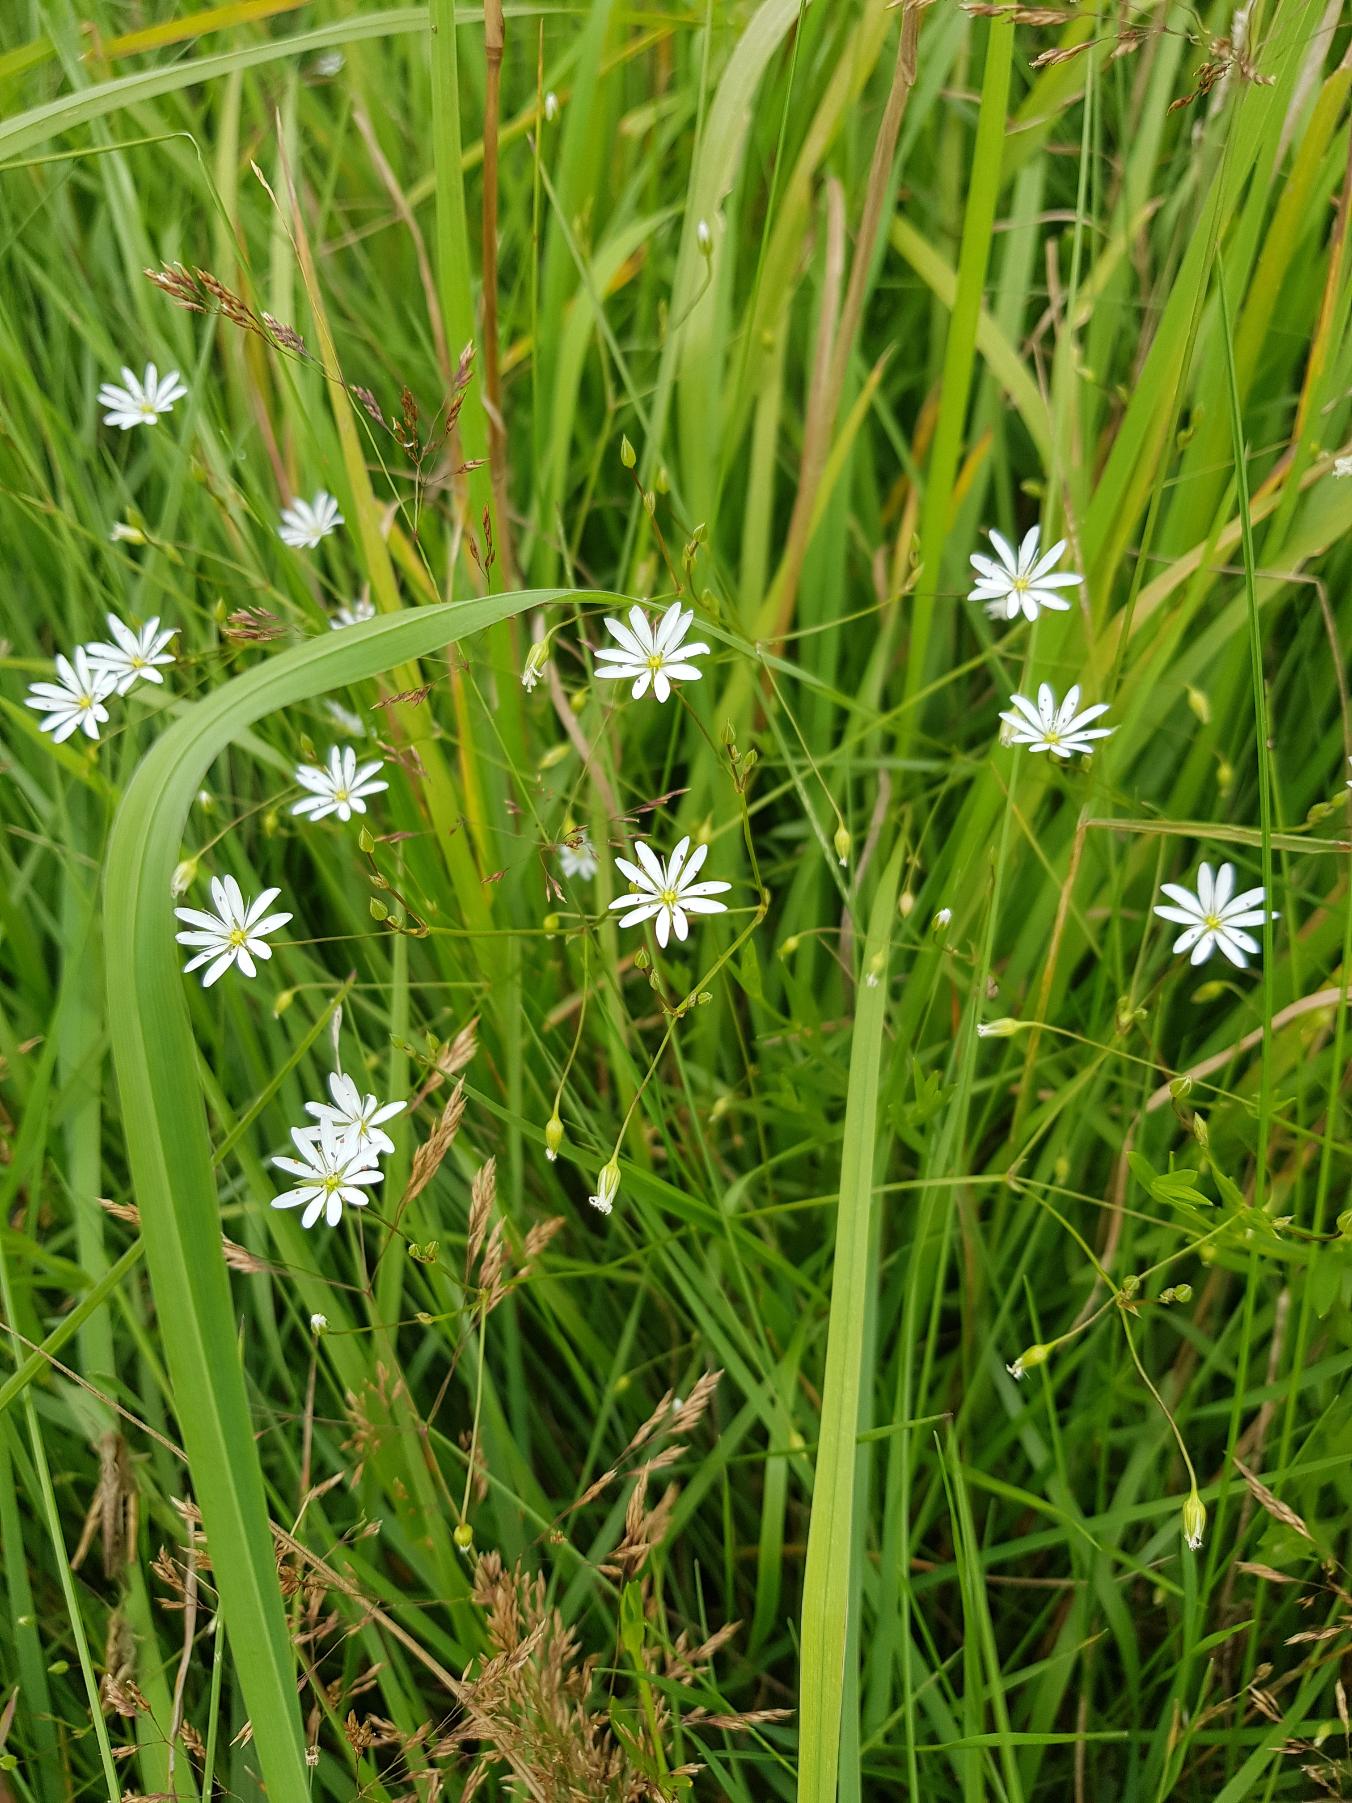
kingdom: Plantae
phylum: Tracheophyta
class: Magnoliopsida
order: Caryophyllales
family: Caryophyllaceae
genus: Stellaria
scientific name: Stellaria graminea
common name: Græsbladet fladstjerne
